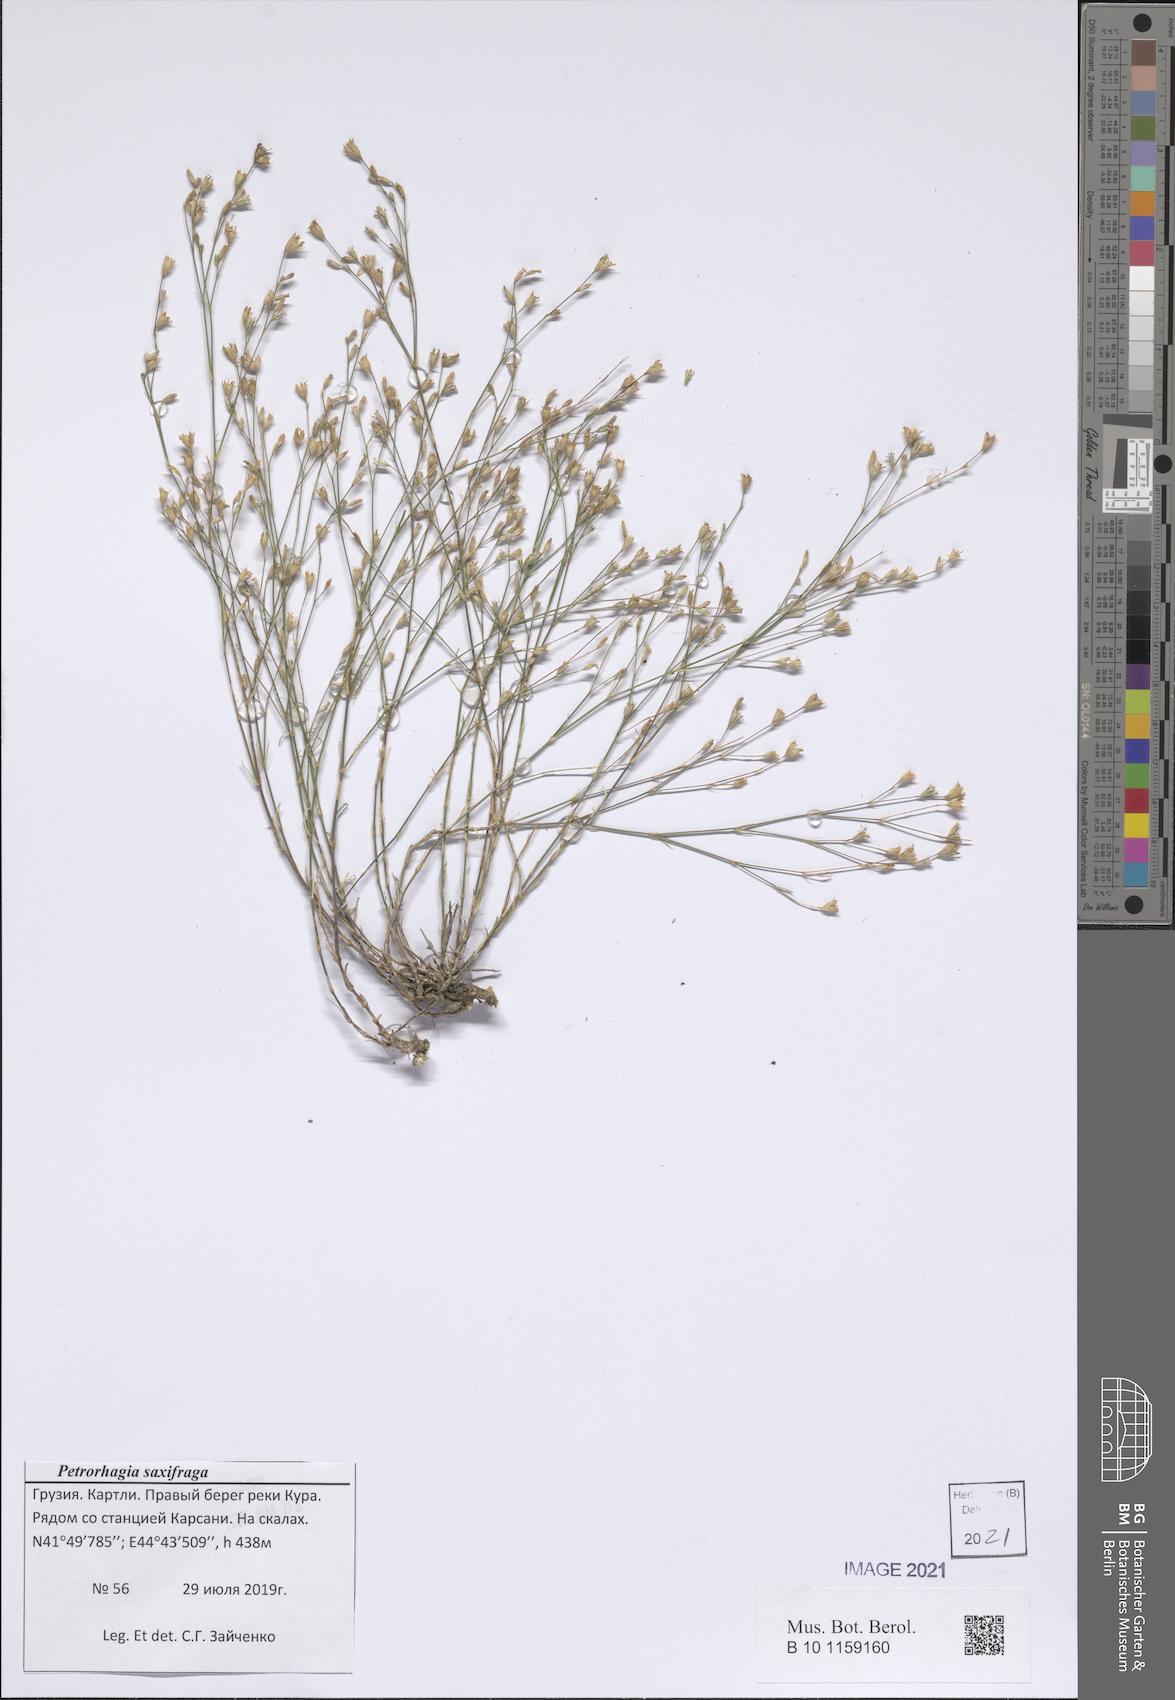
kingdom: Plantae
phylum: Tracheophyta
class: Magnoliopsida
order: Caryophyllales
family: Caryophyllaceae
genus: Petrorhagia
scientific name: Petrorhagia saxifraga
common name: Tunicflower
